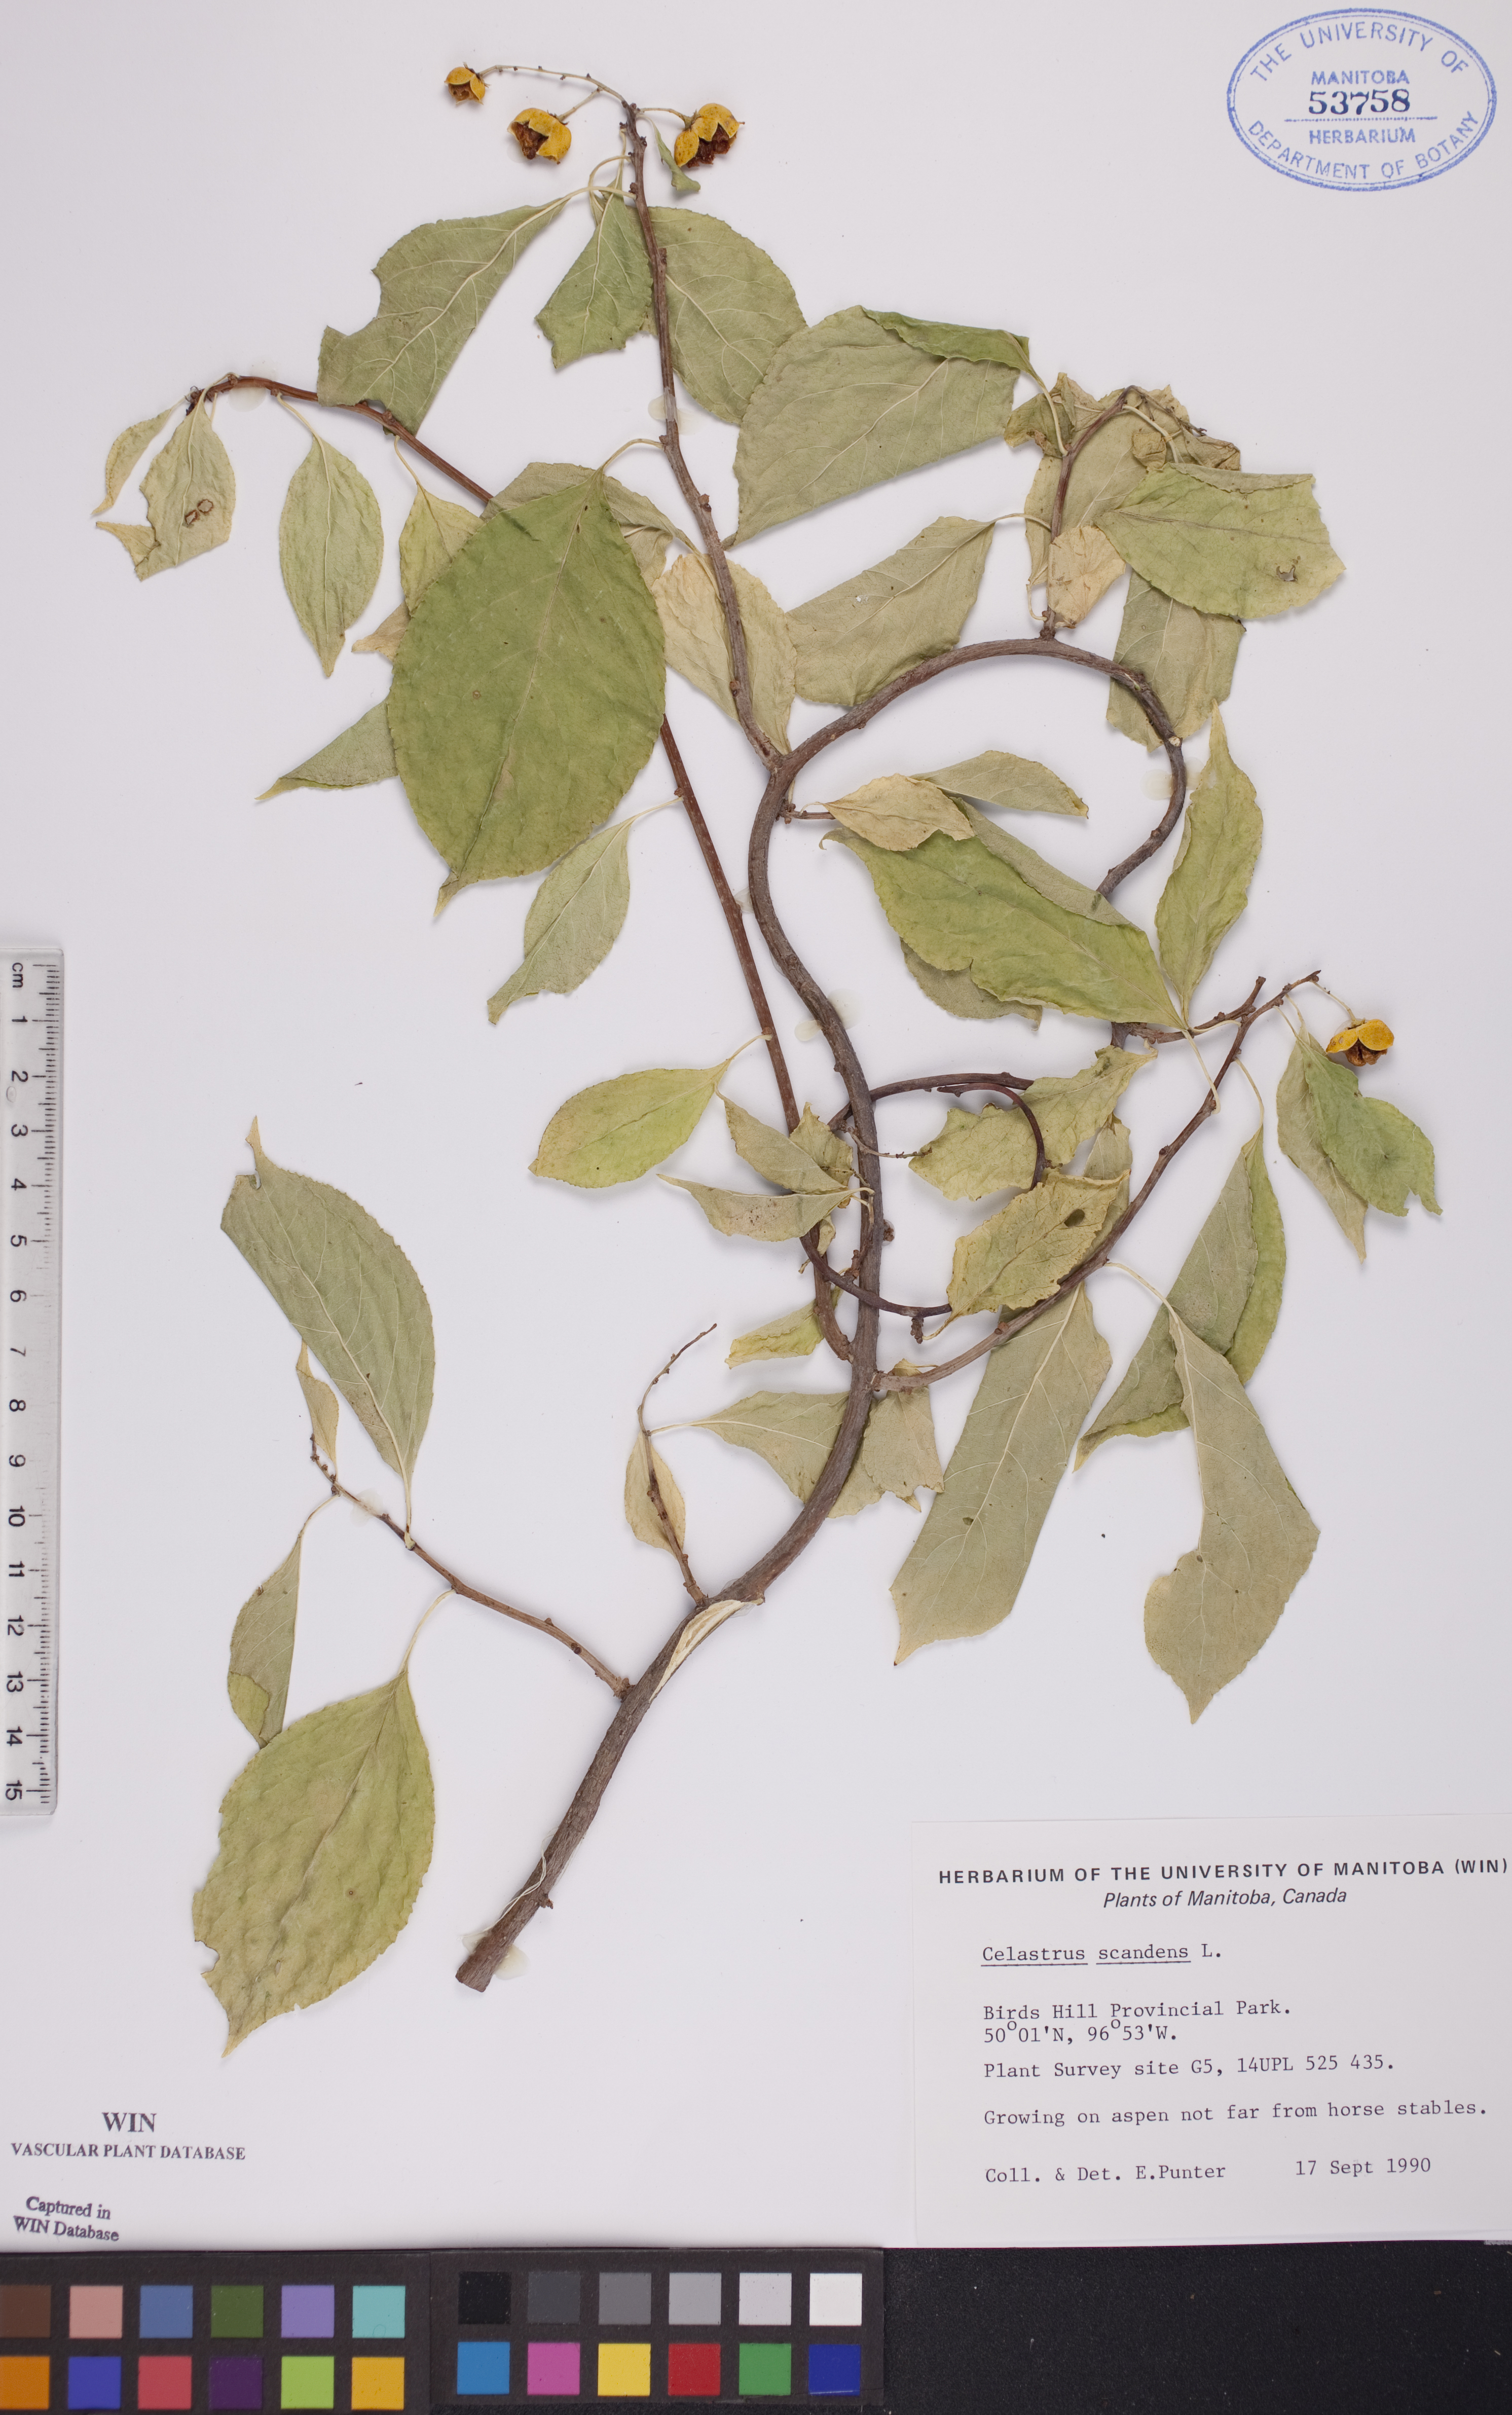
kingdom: Plantae
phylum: Tracheophyta
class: Magnoliopsida
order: Celastrales
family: Celastraceae
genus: Celastrus
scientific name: Celastrus scandens
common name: American bittersweet
